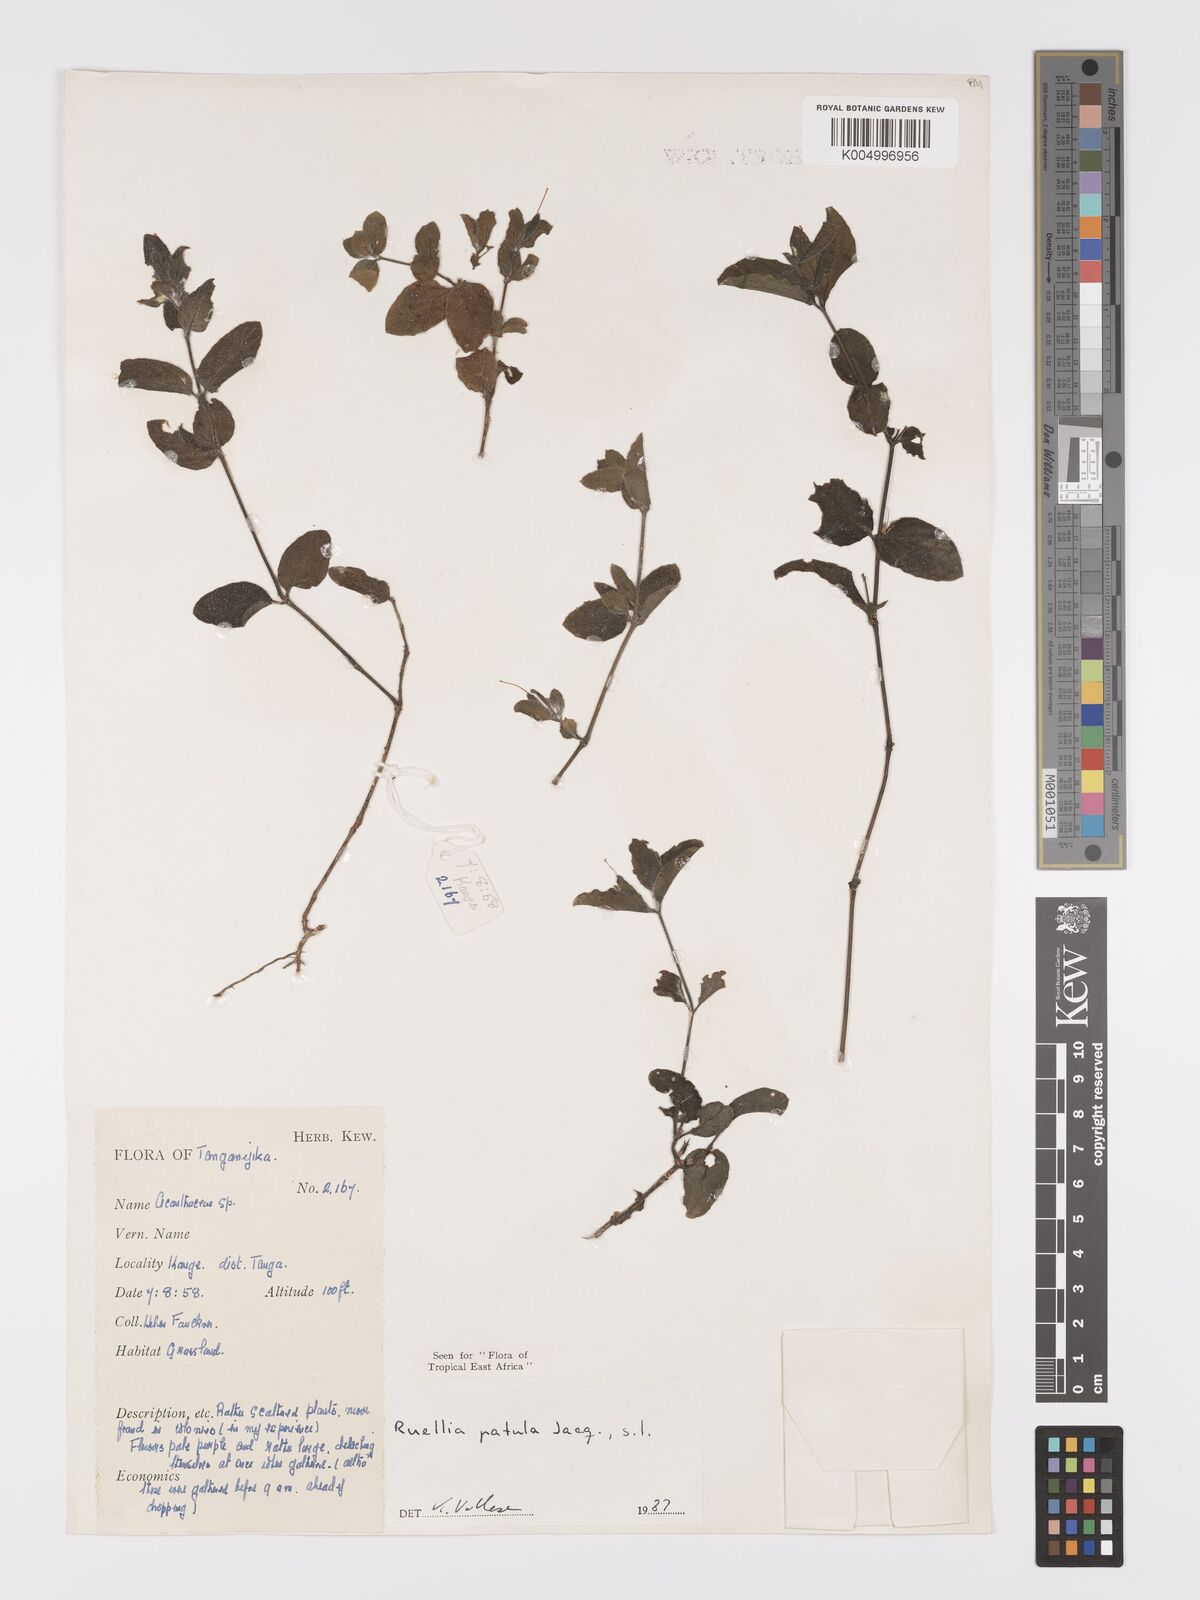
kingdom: Plantae
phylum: Tracheophyta
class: Magnoliopsida
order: Lamiales
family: Acanthaceae
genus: Ruellia
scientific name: Ruellia patula
